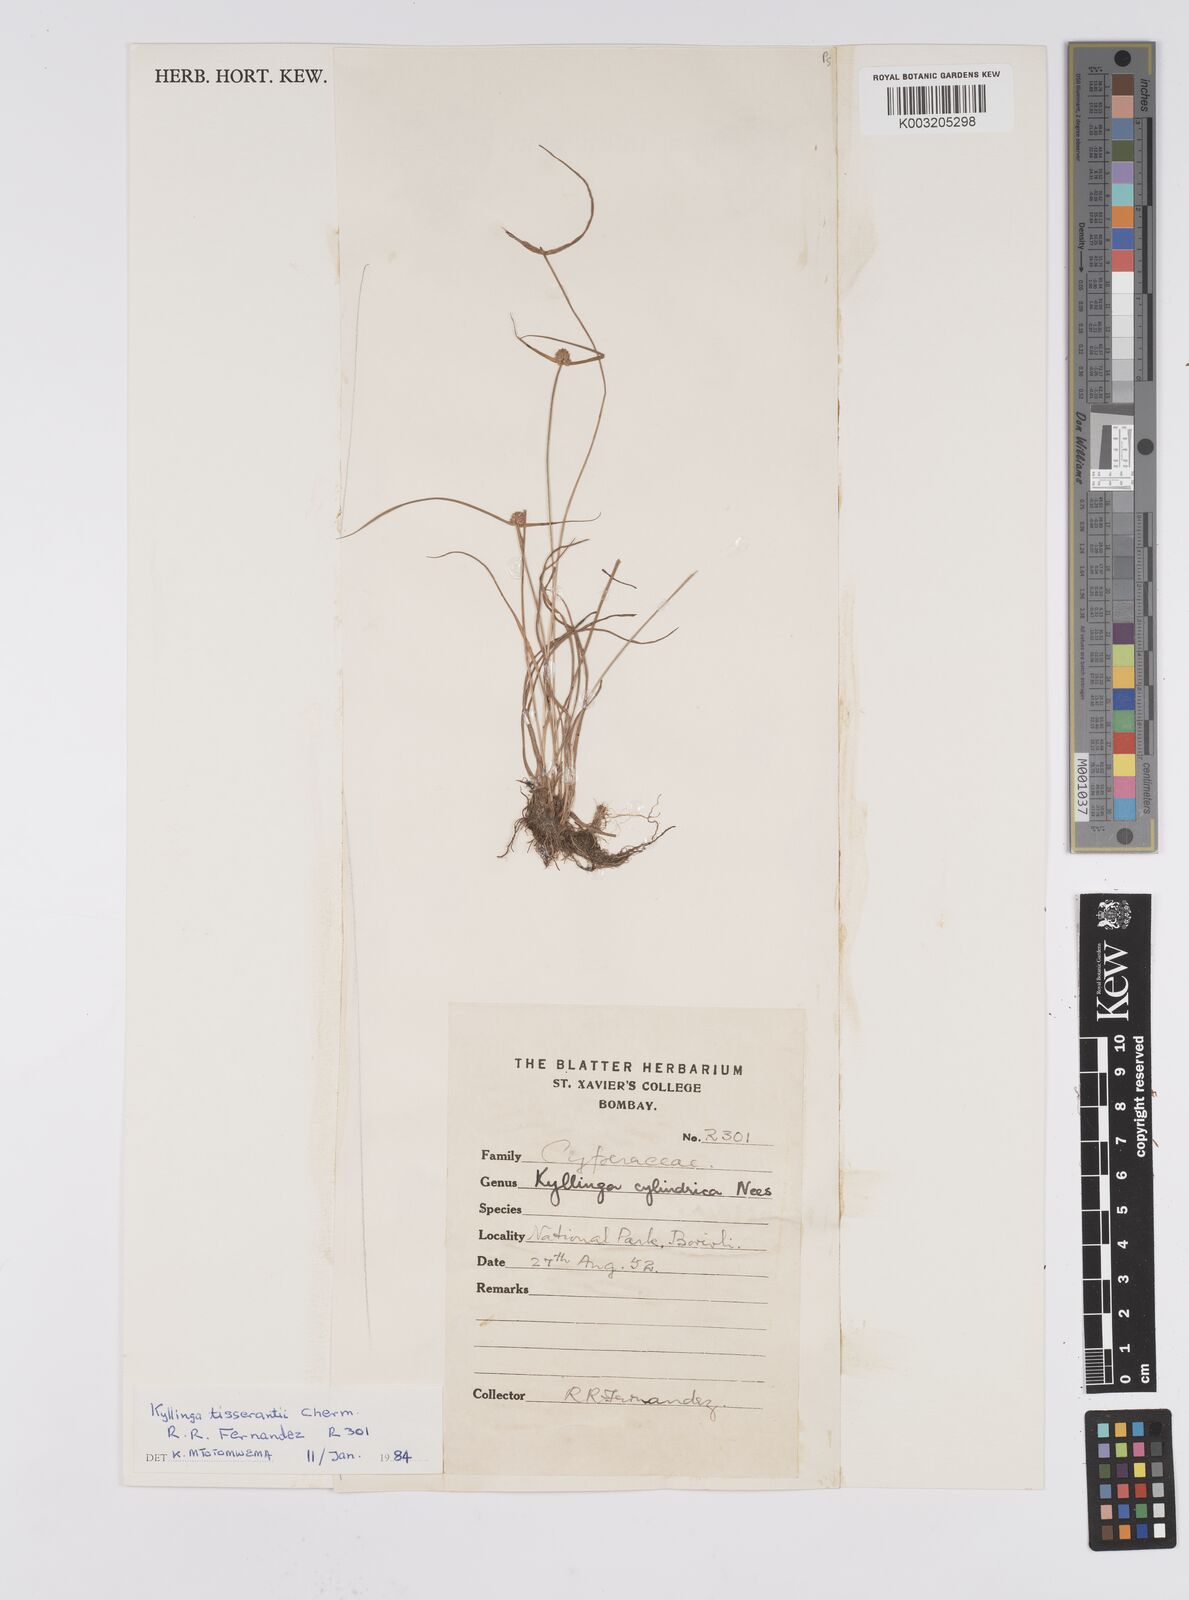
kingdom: Plantae
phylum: Tracheophyta
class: Liliopsida
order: Poales
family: Cyperaceae
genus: Cyperus
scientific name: Cyperus
